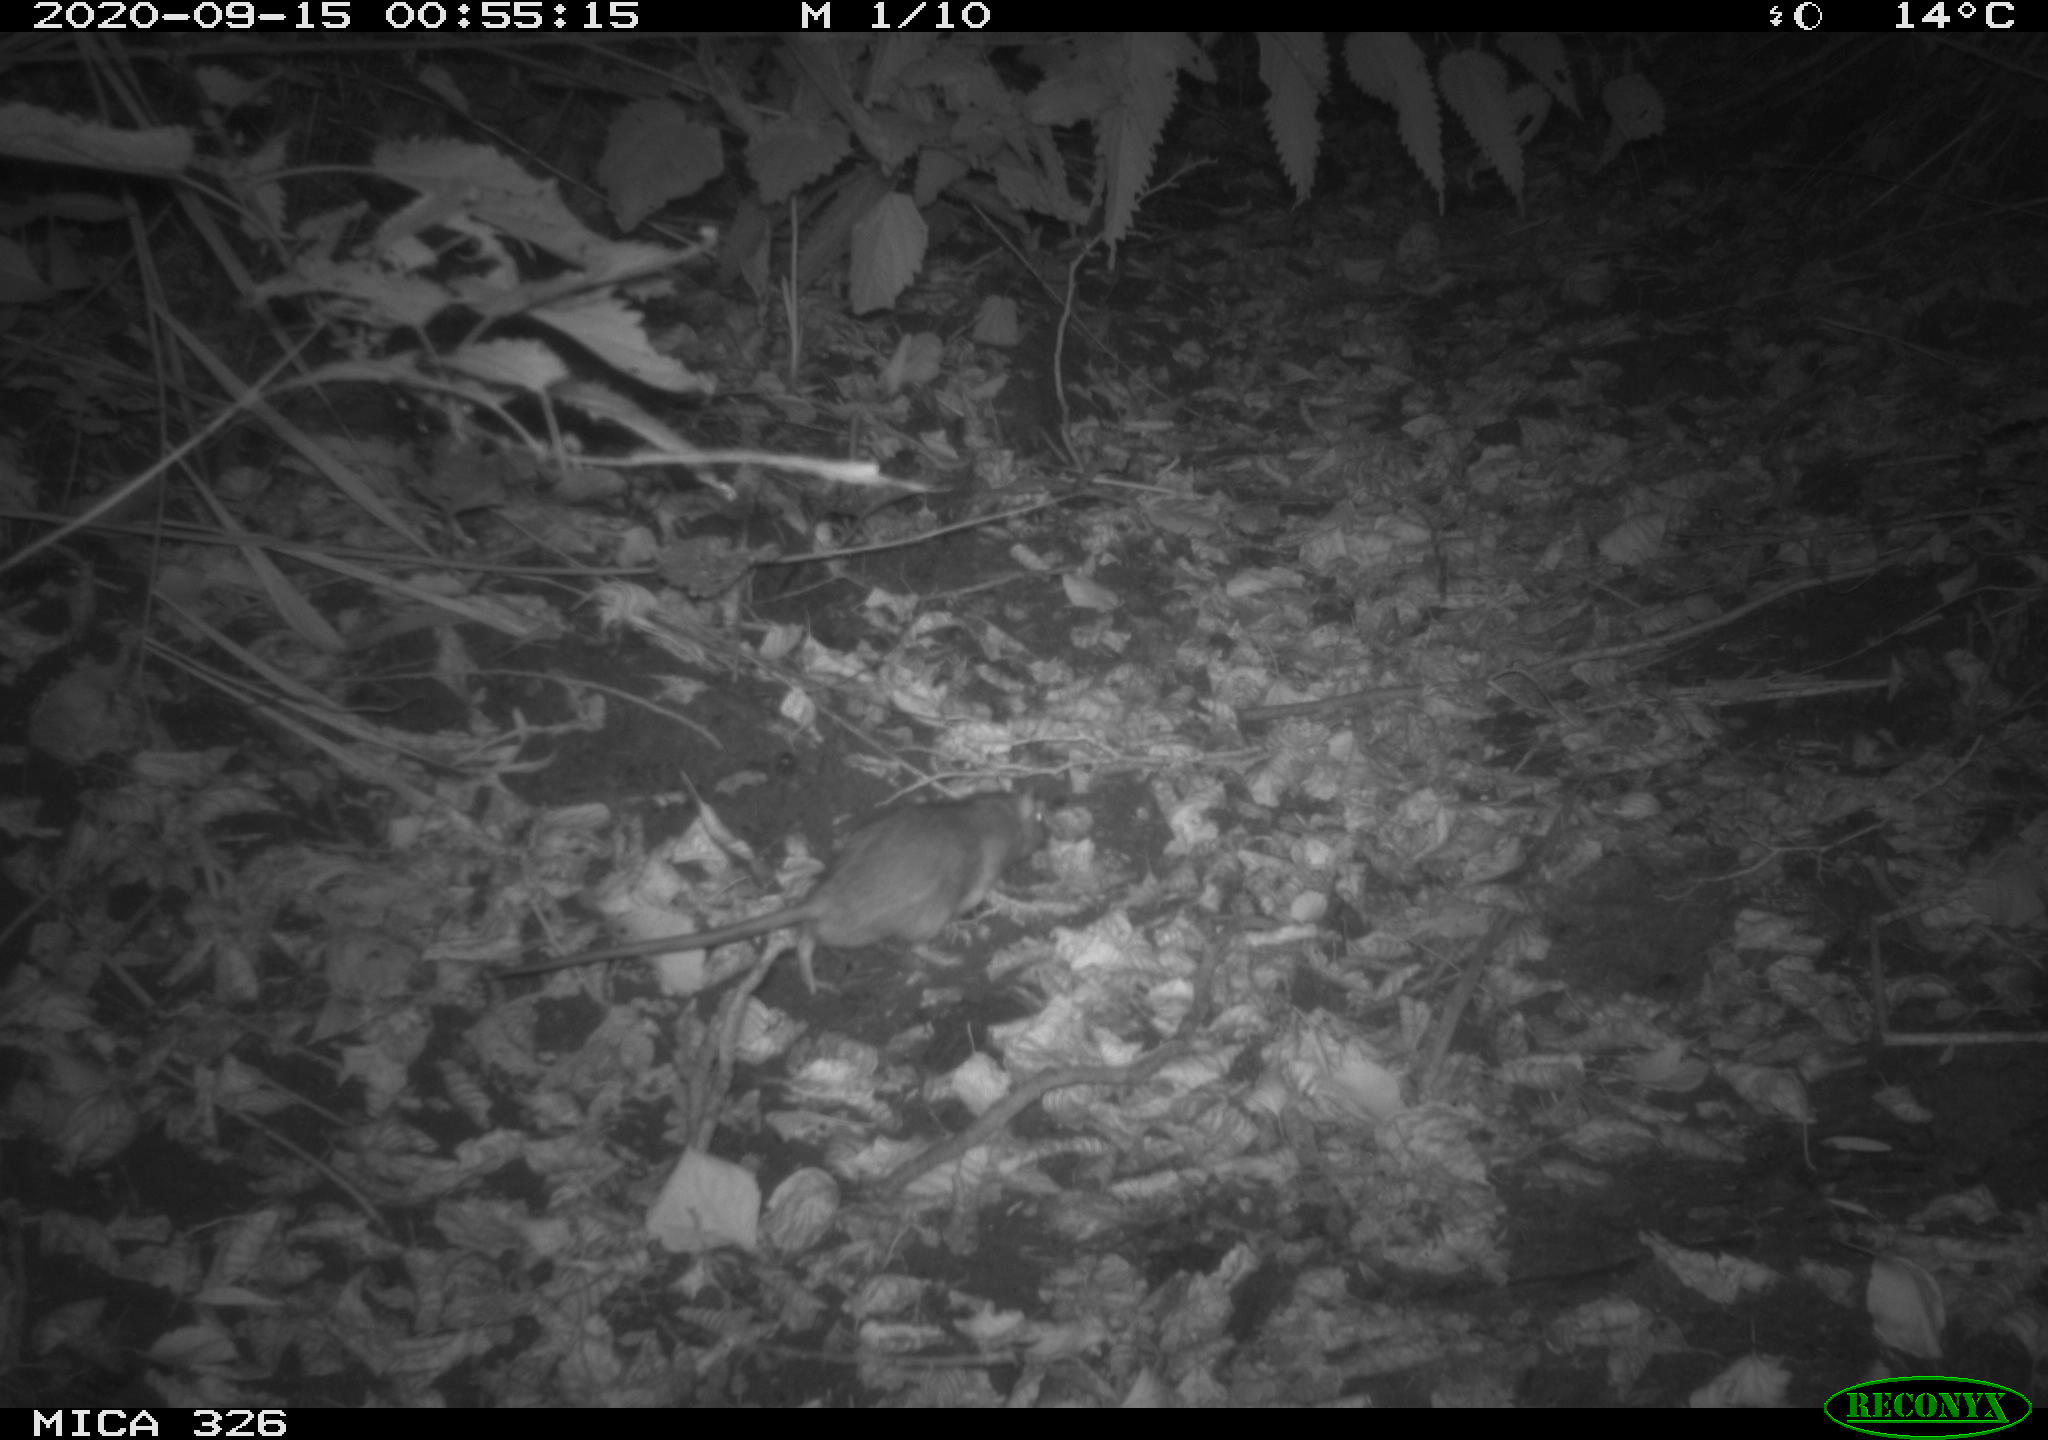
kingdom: Animalia
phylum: Chordata
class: Mammalia
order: Rodentia
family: Muridae
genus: Rattus
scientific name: Rattus norvegicus
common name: Brown rat
